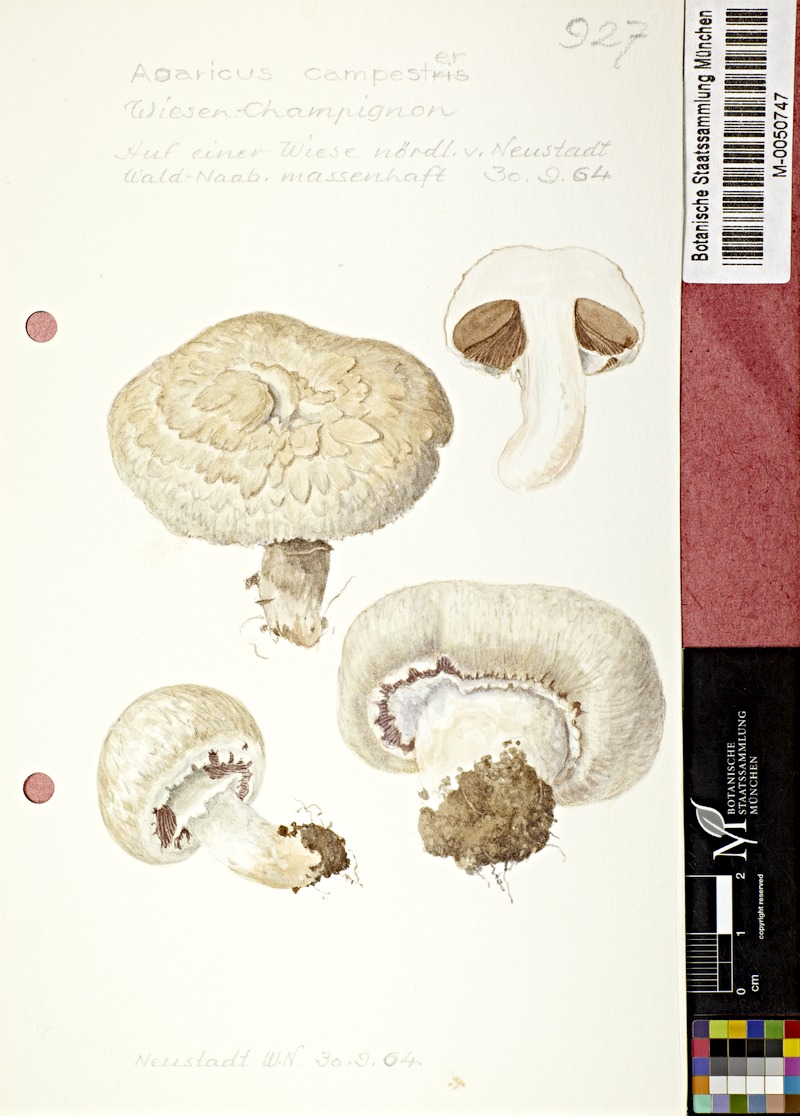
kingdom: Fungi
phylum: Basidiomycota
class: Agaricomycetes
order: Agaricales
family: Agaricaceae
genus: Agaricus
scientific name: Agaricus campestris
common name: Field mushroom
